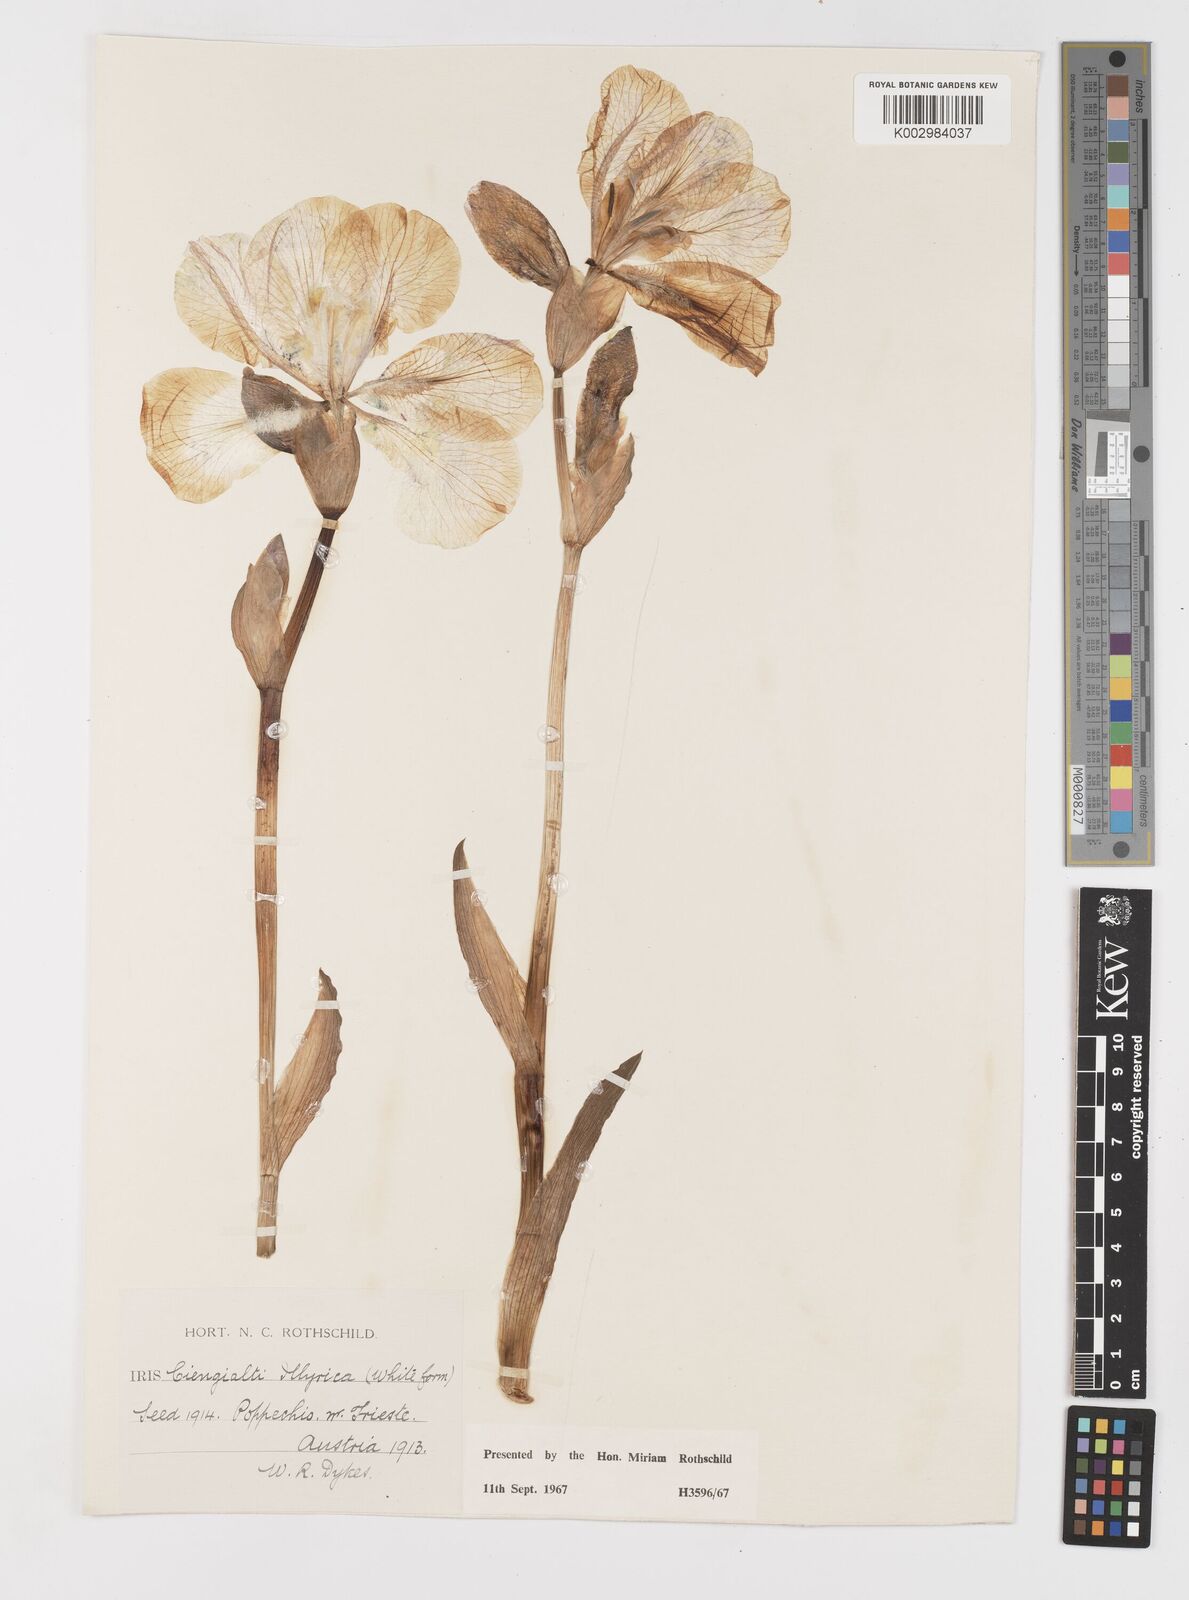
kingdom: Plantae
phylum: Tracheophyta
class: Liliopsida
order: Asparagales
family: Iridaceae
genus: Iris
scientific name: Iris pallida
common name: Sweet iris
